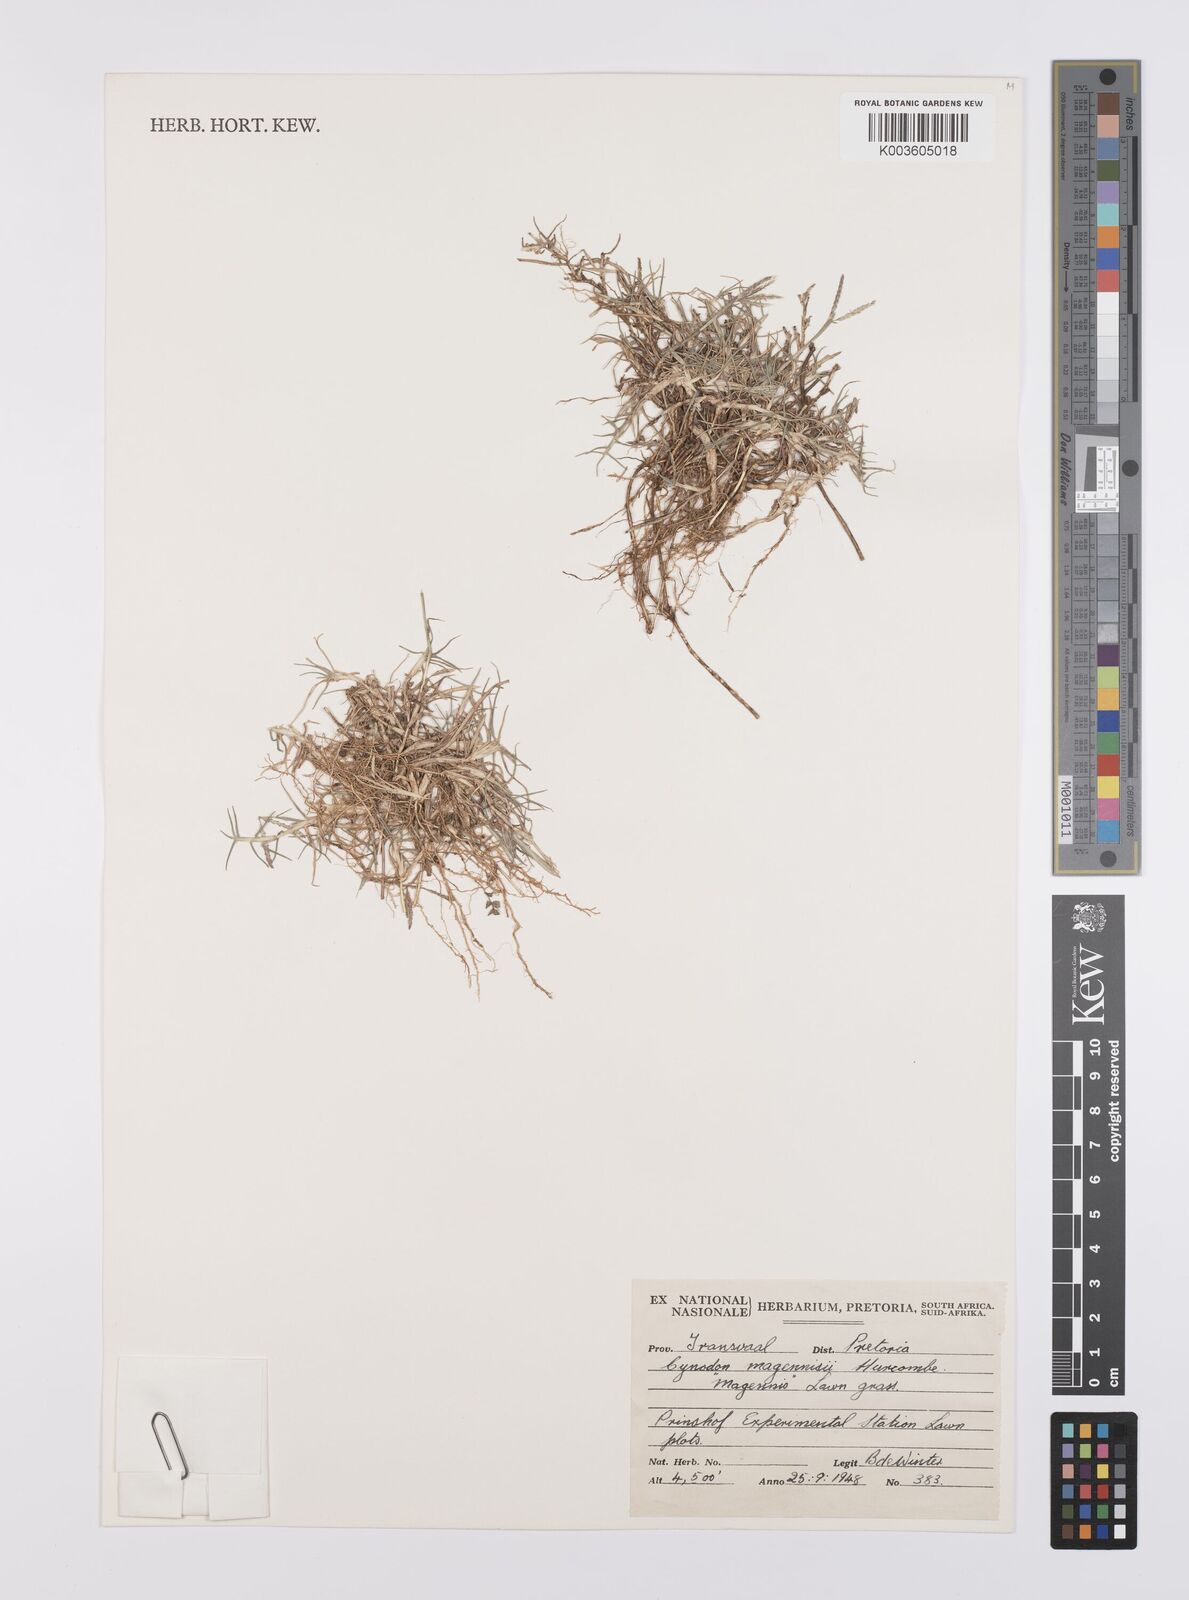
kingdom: Plantae
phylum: Tracheophyta
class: Liliopsida
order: Poales
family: Poaceae
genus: Cynodon
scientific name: Cynodon magennisii
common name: Bermudagrass
